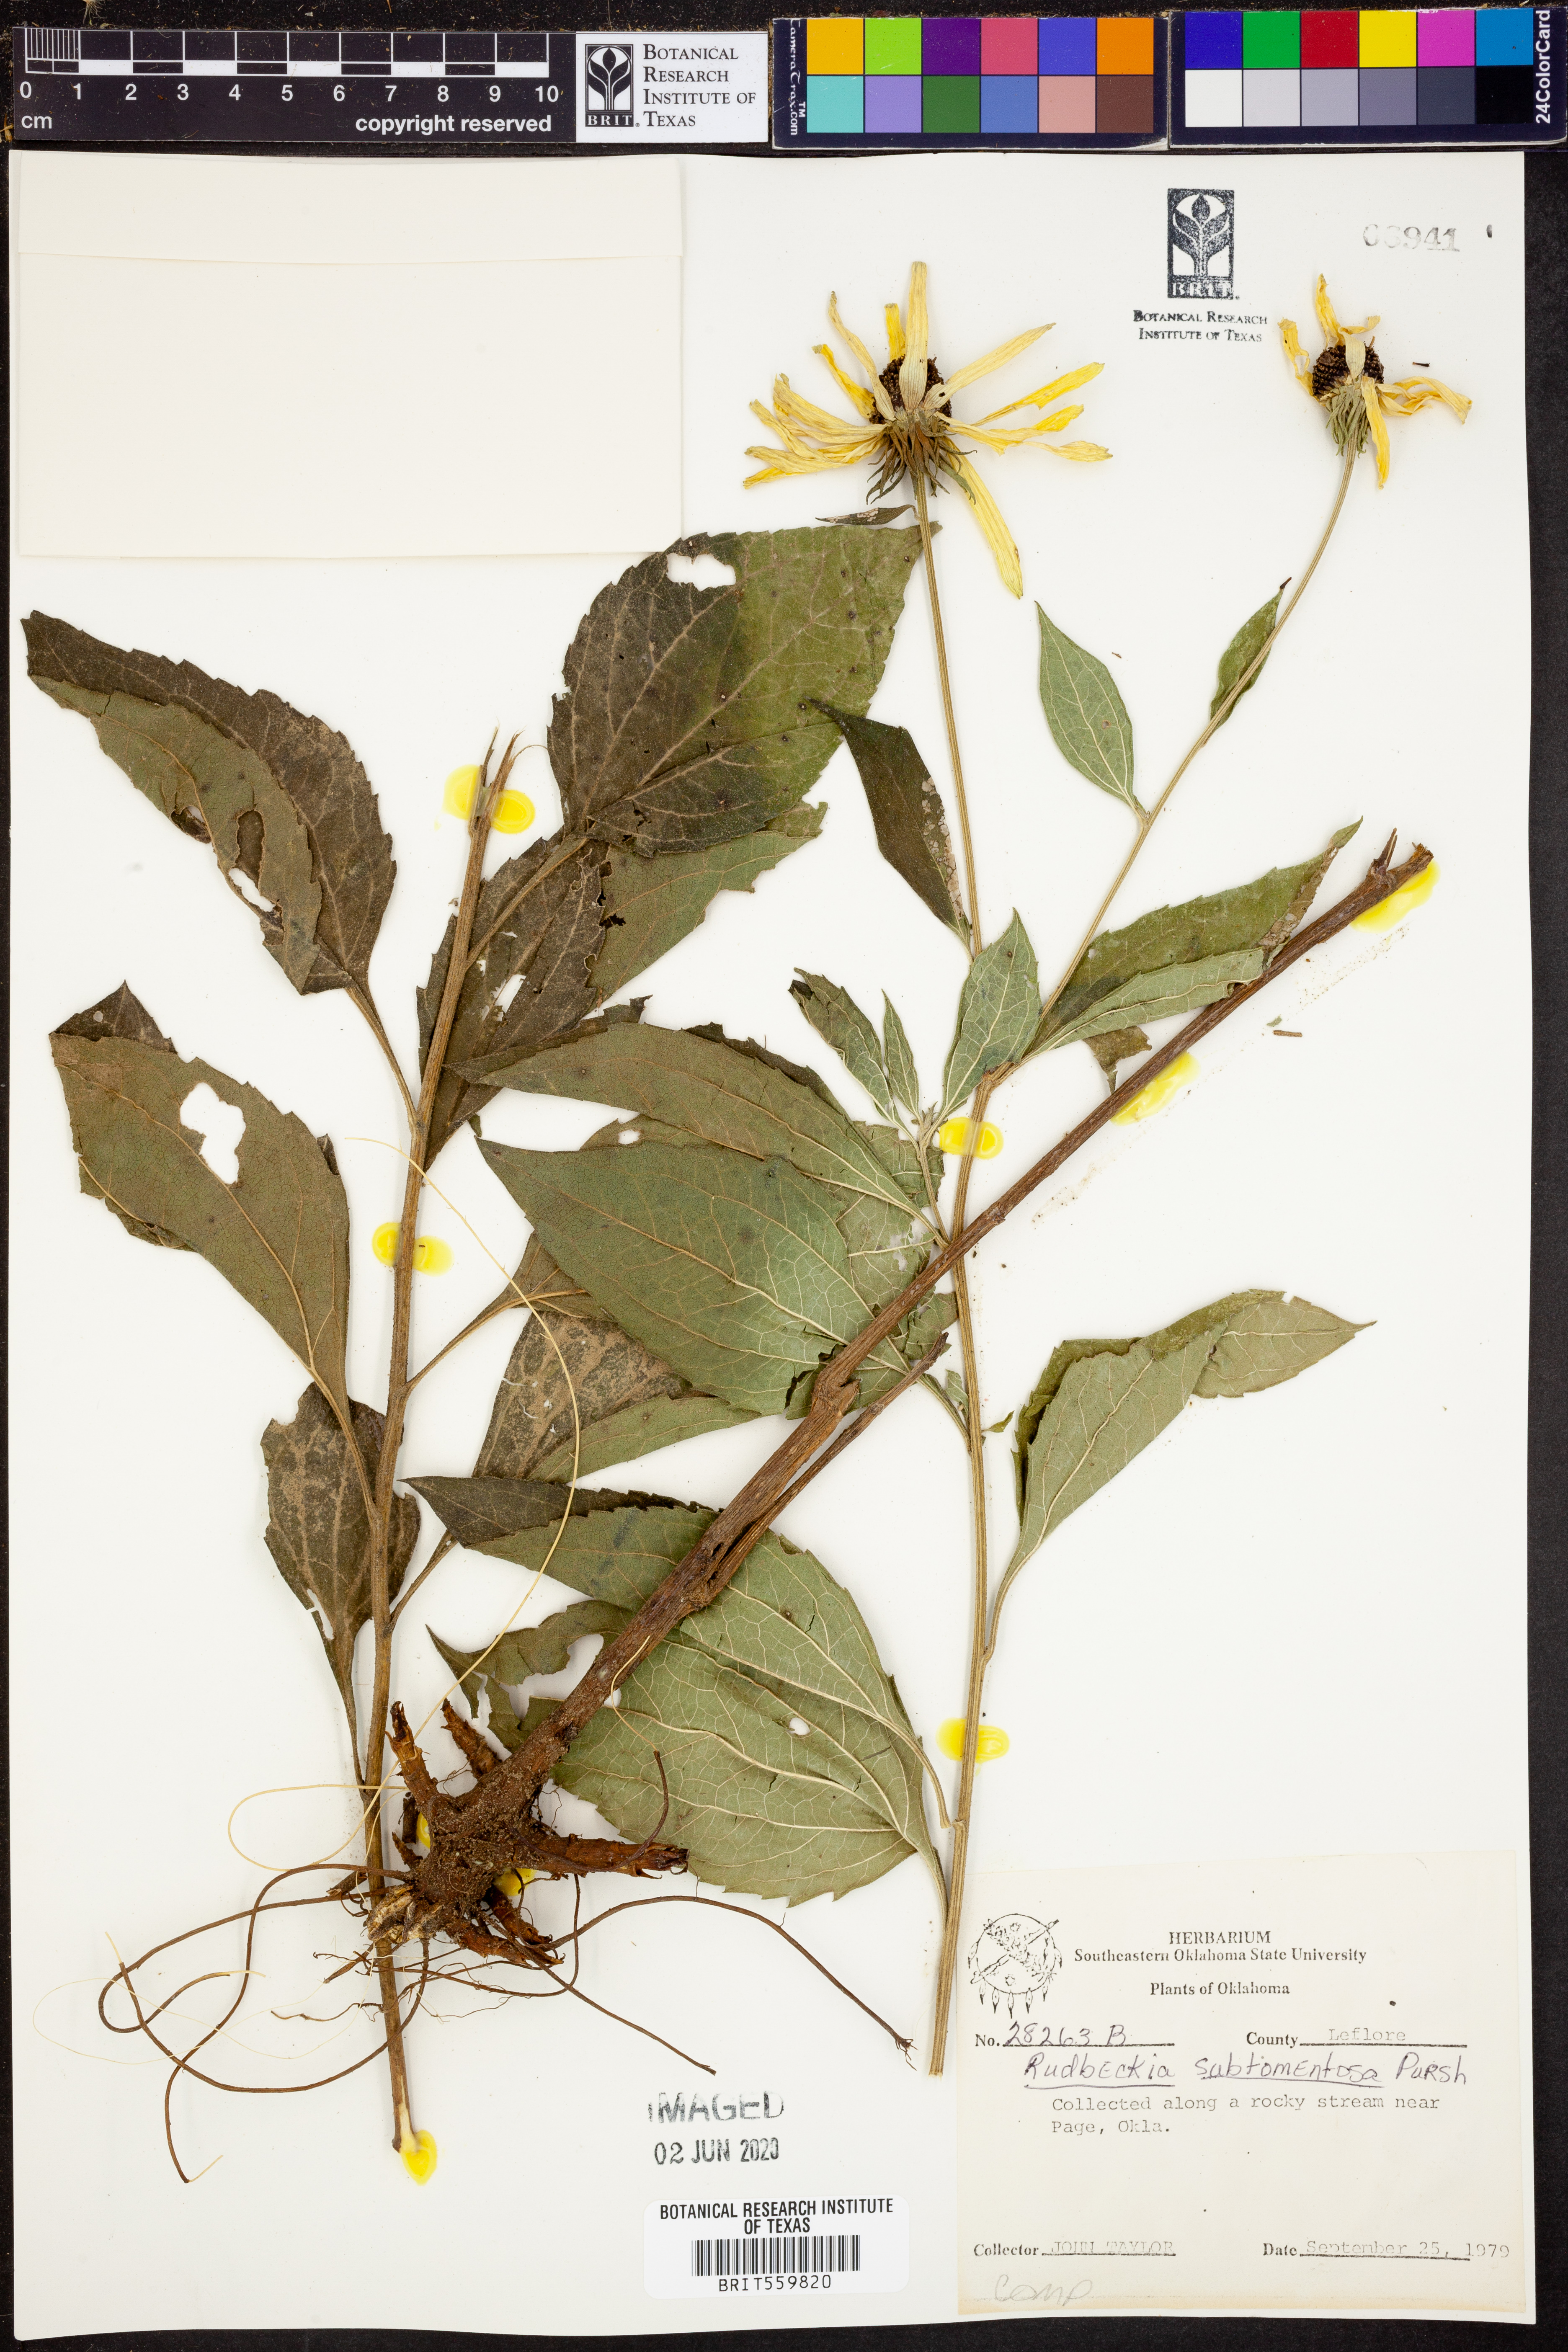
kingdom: Plantae
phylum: Tracheophyta
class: Magnoliopsida
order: Asterales
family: Asteraceae
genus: Rudbeckia
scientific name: Rudbeckia subtomentosa
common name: Sweet coneflower
